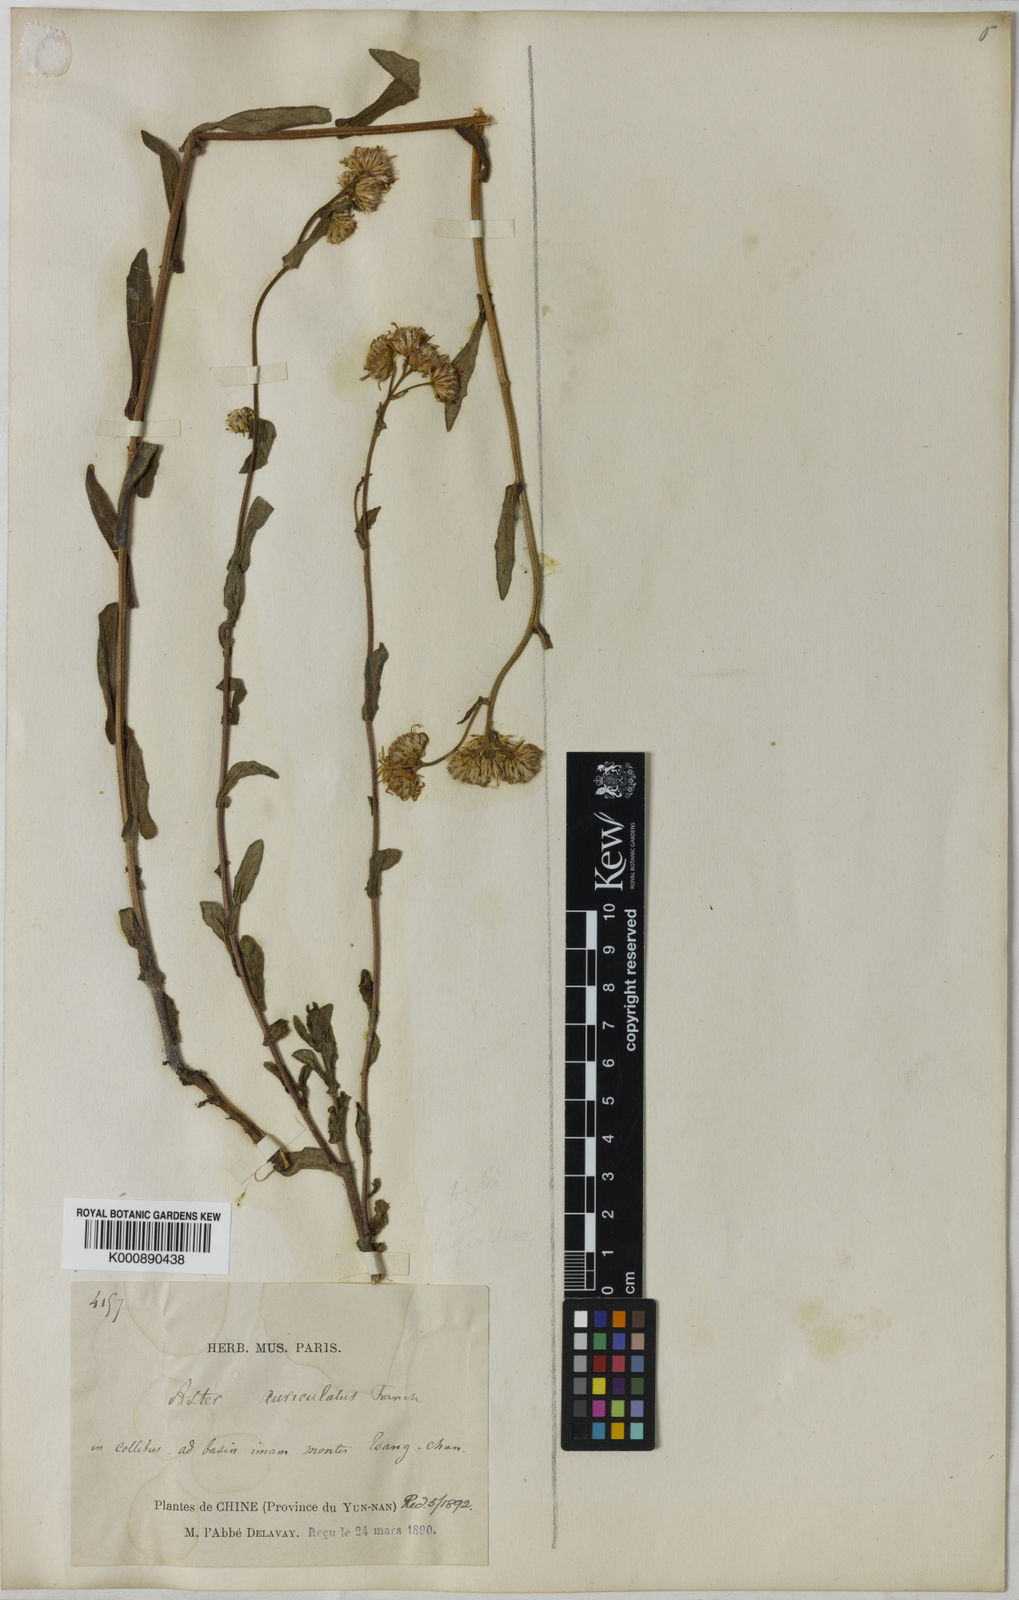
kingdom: Plantae
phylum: Tracheophyta
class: Magnoliopsida
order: Asterales
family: Asteraceae
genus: Metamyriactis
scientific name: Metamyriactis panduratus
